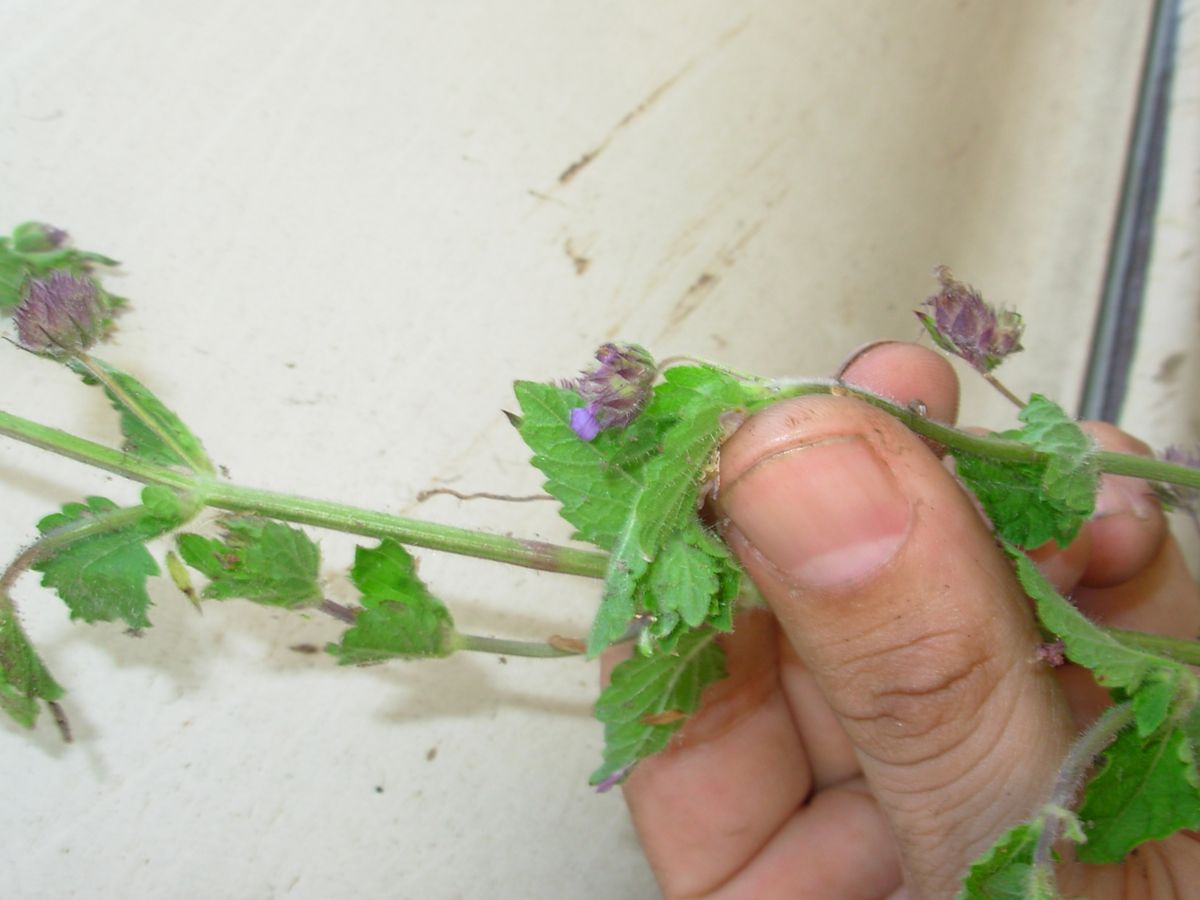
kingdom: Plantae
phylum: Tracheophyta
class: Magnoliopsida
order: Lamiales
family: Lamiaceae
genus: Marsypianthes
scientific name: Marsypianthes chamaedrys
